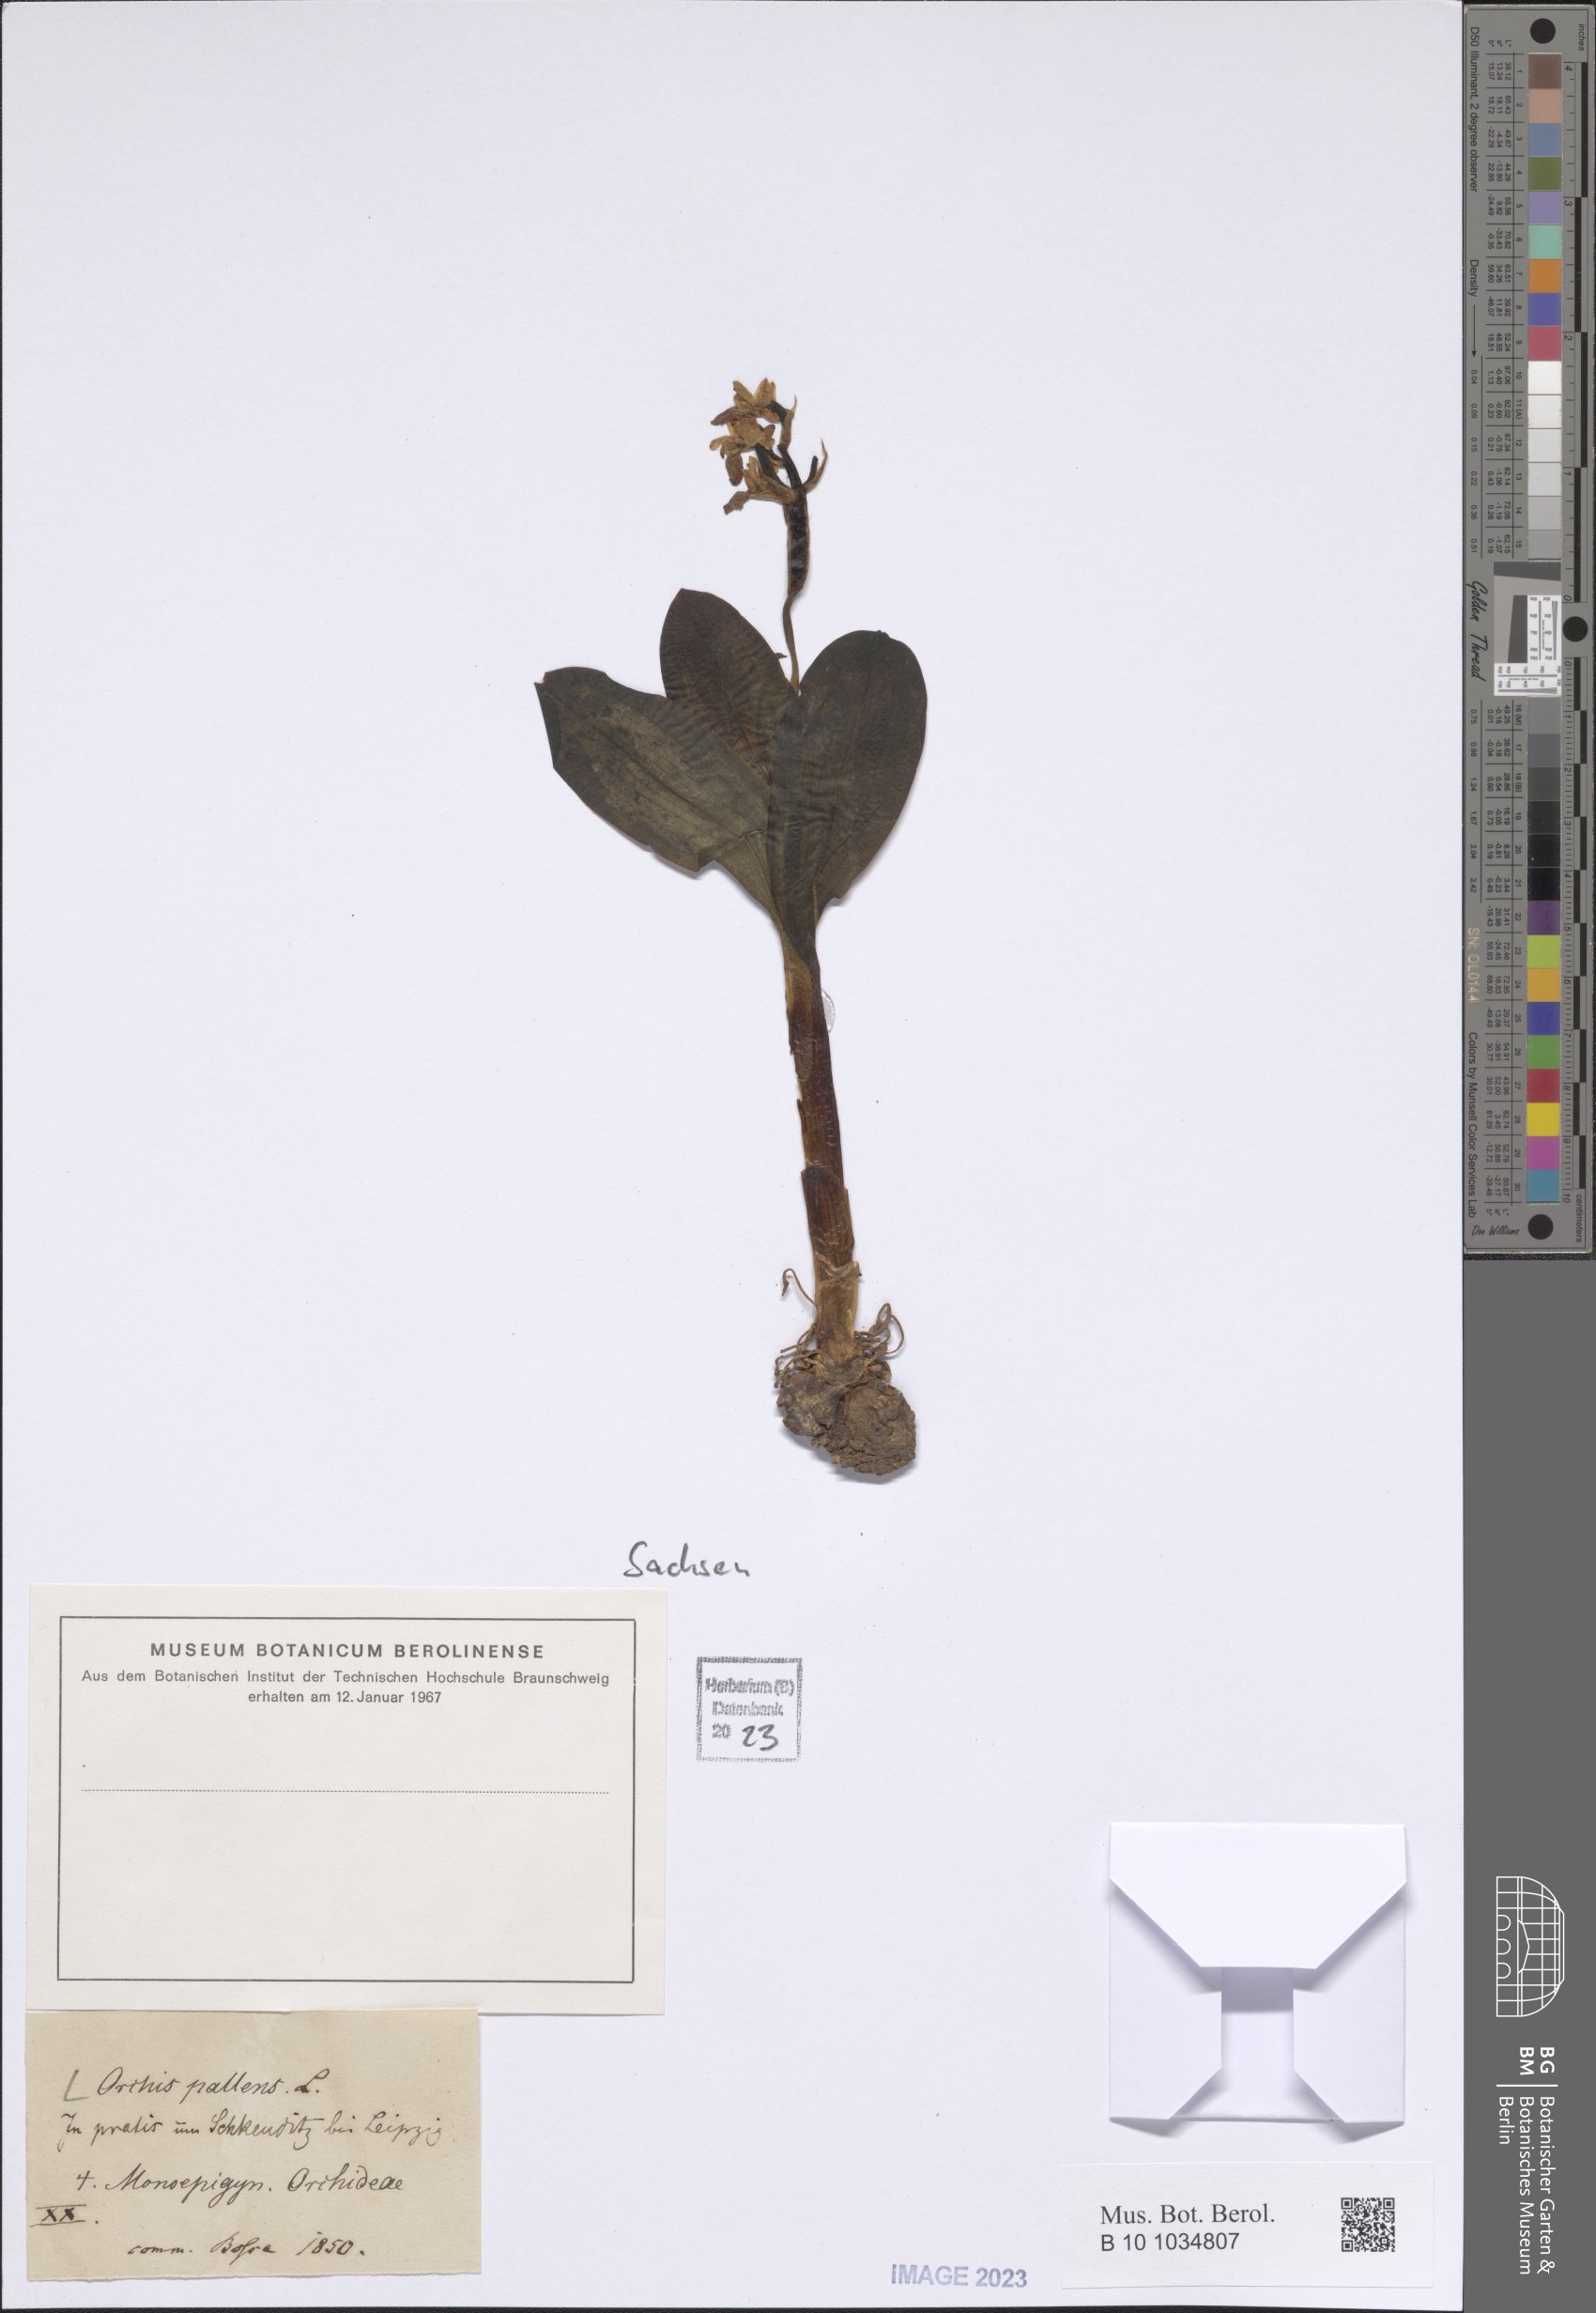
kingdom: Plantae
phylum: Tracheophyta
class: Liliopsida
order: Asparagales
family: Orchidaceae
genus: Orchis
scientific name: Orchis pallens
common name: Pale-flowered orchid
